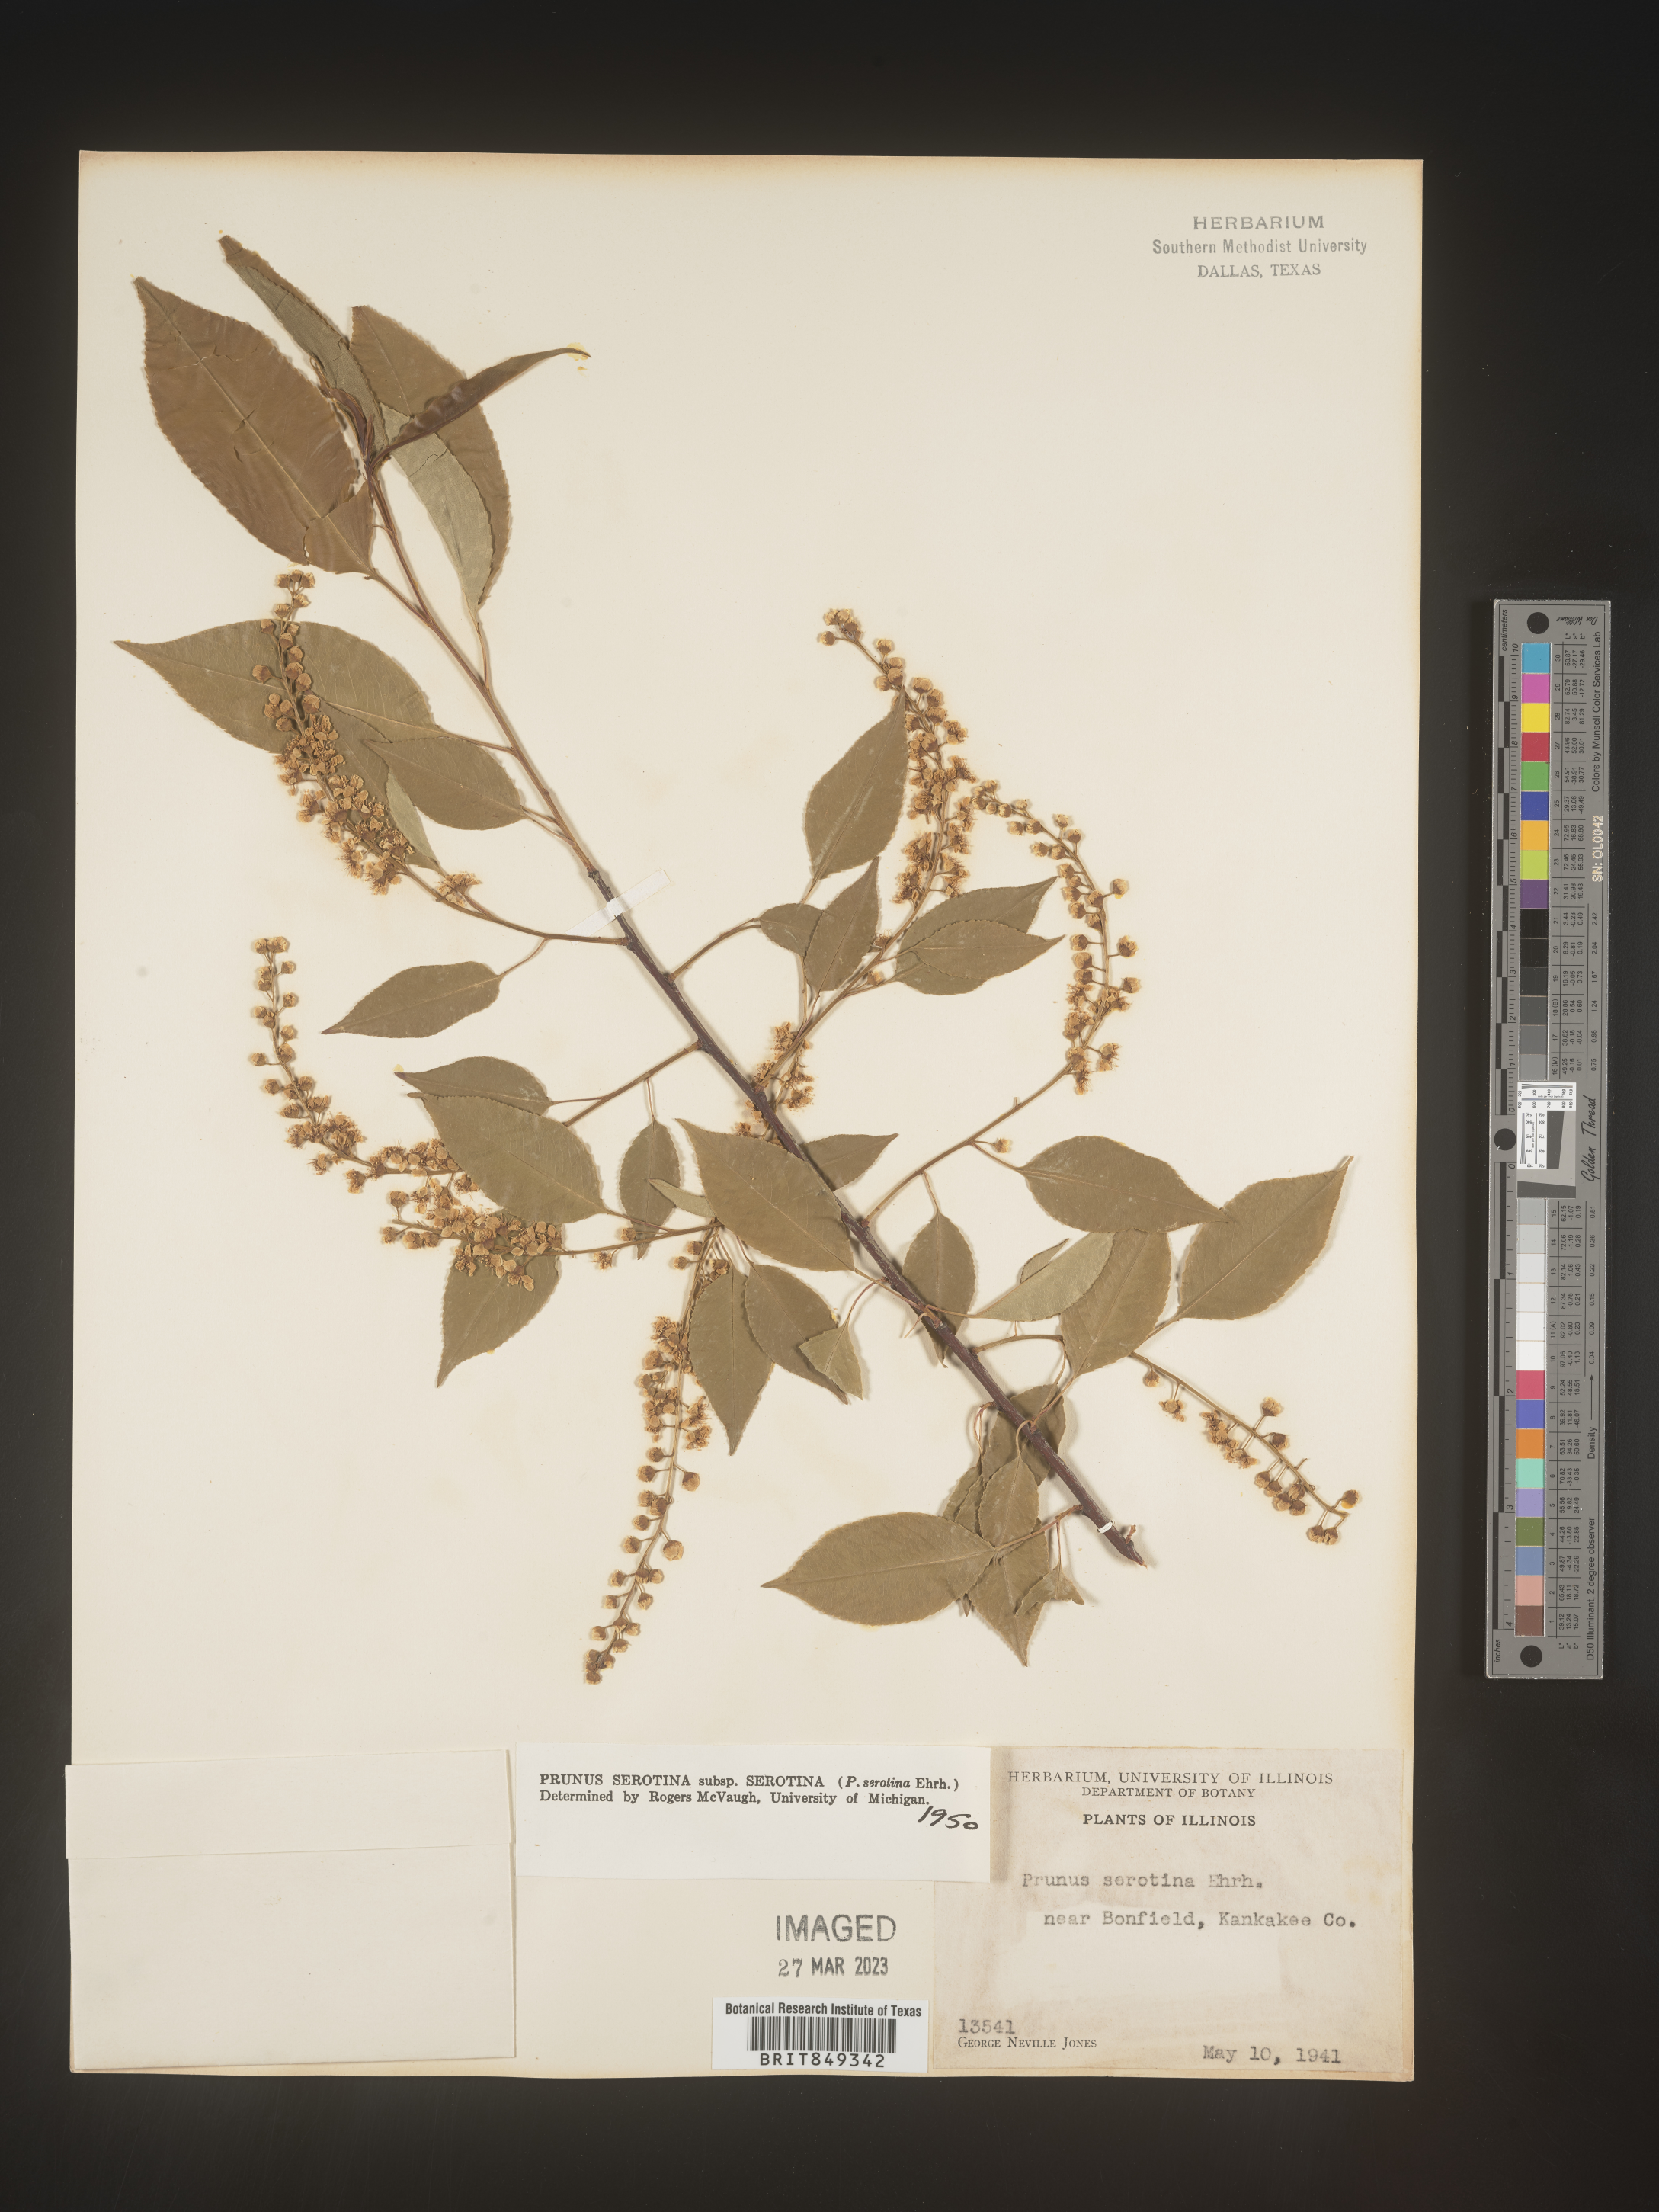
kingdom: Plantae
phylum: Tracheophyta
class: Magnoliopsida
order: Rosales
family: Rosaceae
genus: Prunus
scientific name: Prunus serotina
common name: Black cherry
